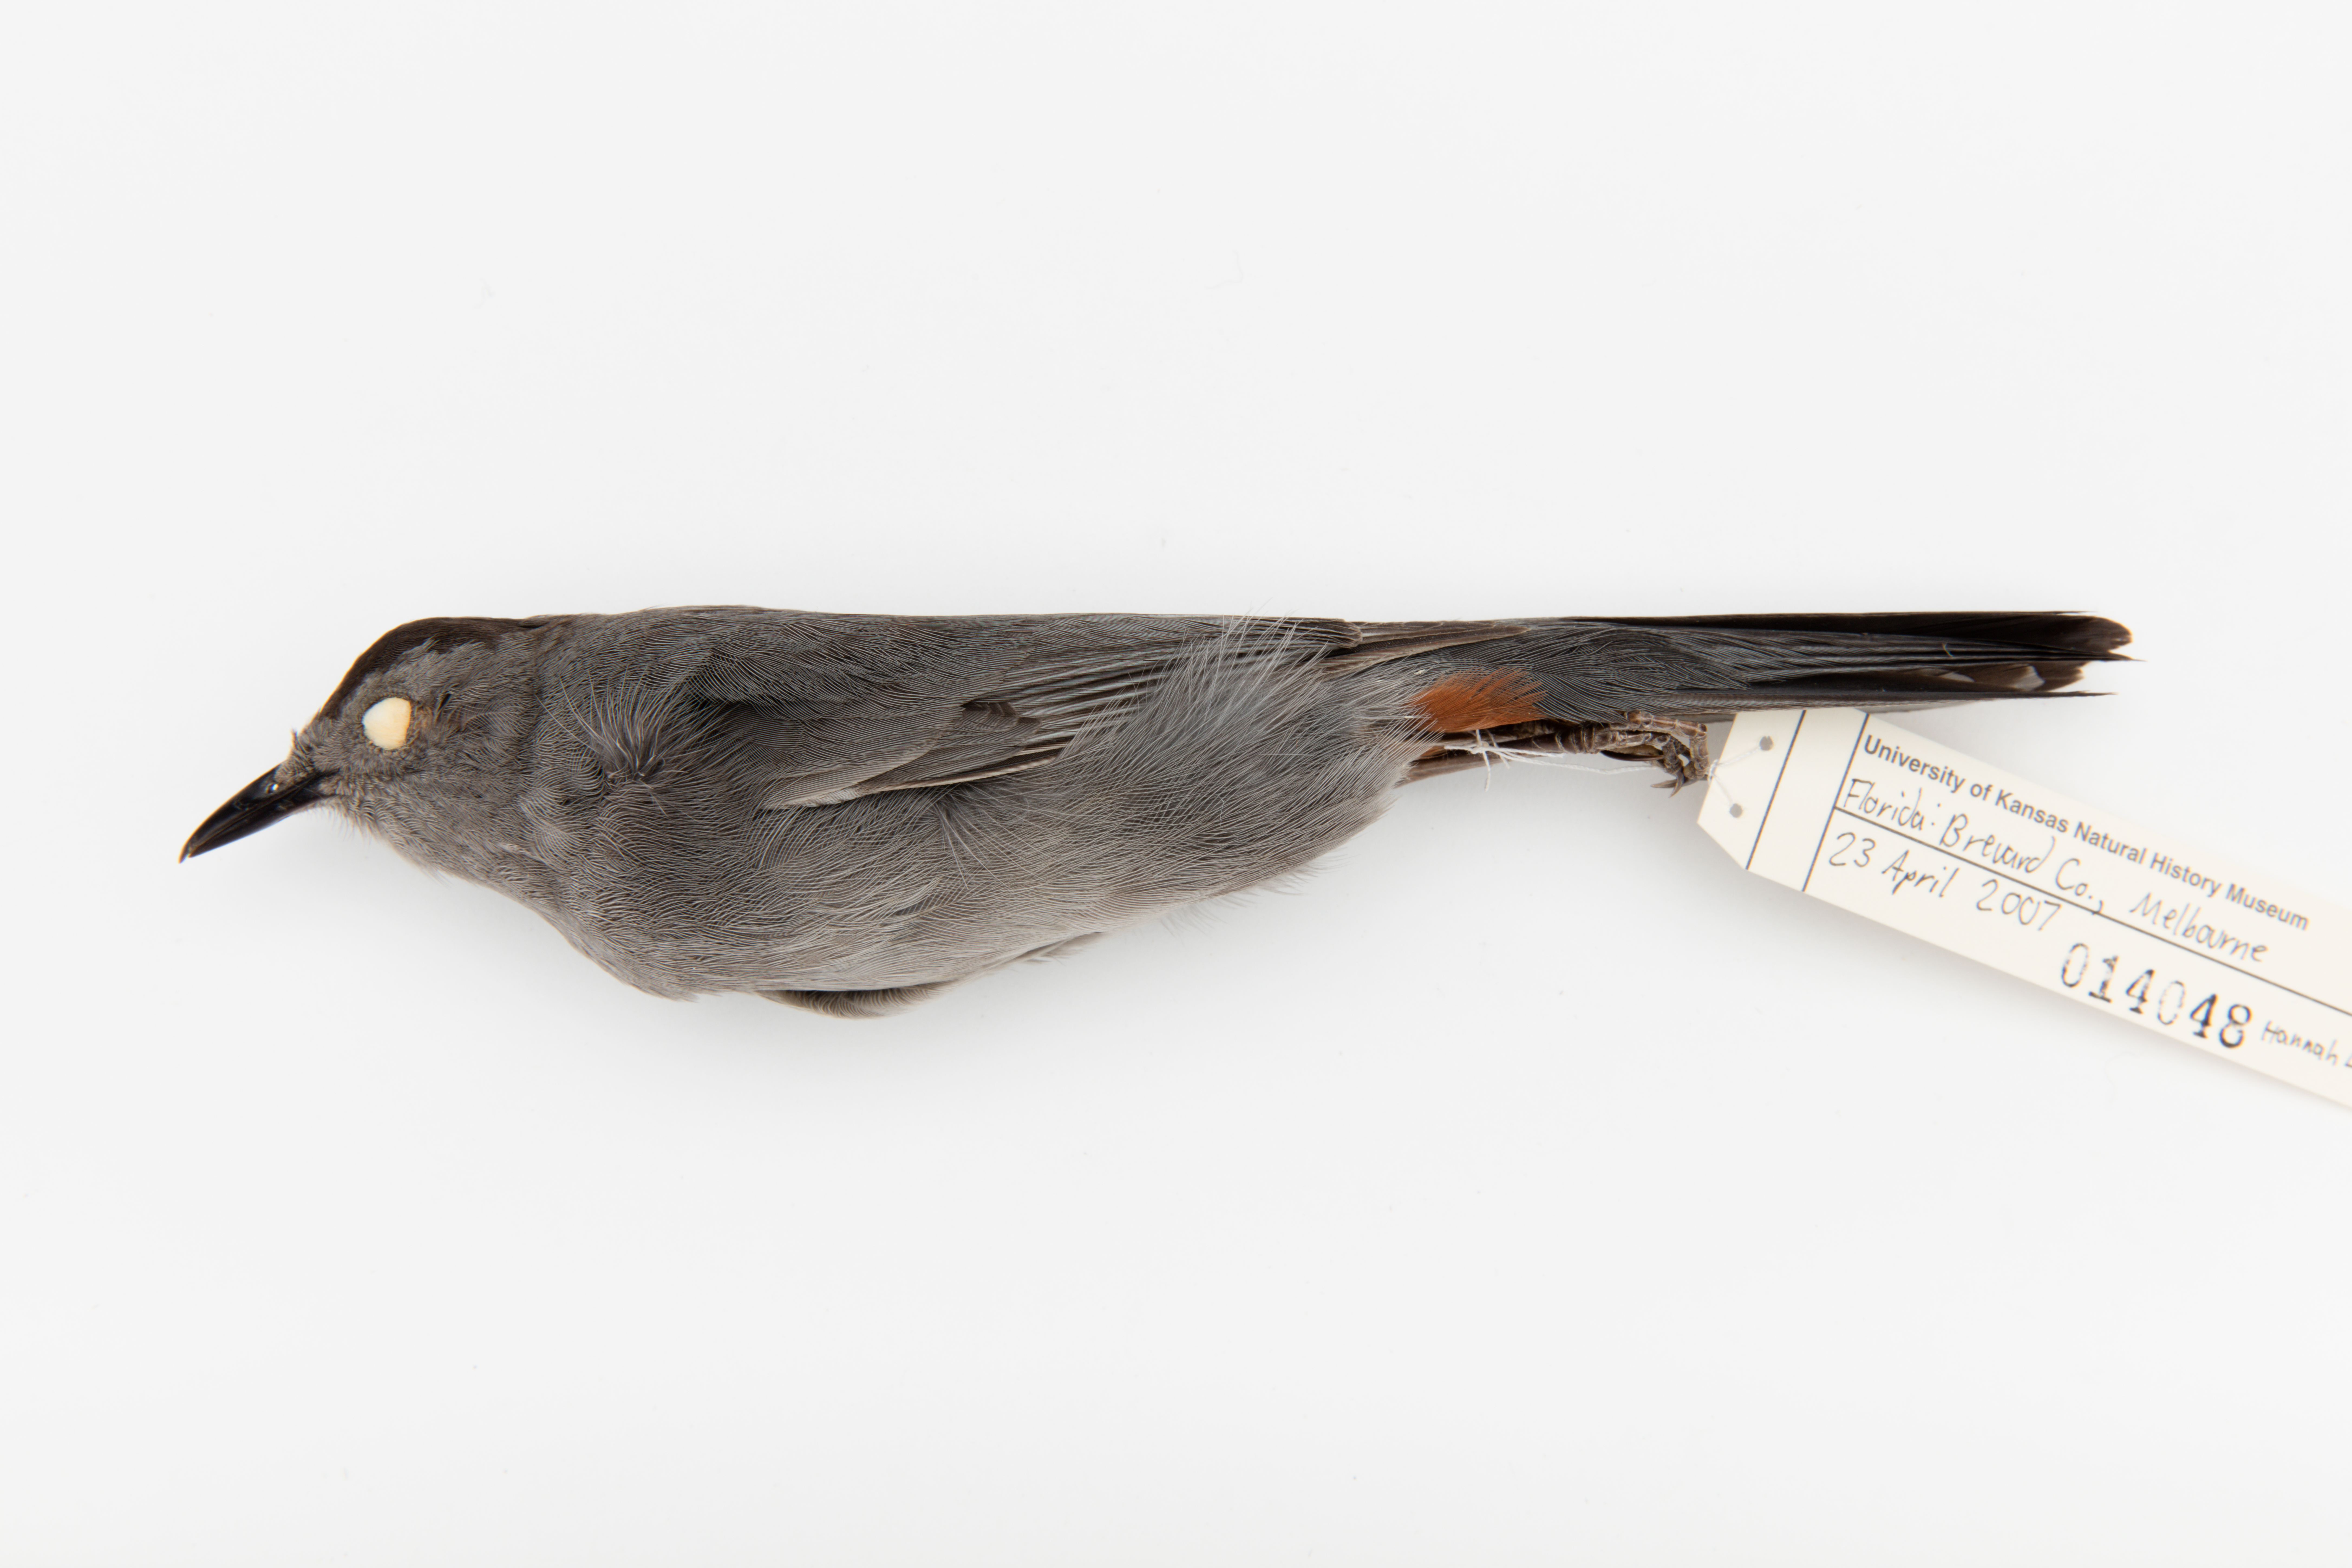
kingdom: Animalia
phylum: Chordata
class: Aves
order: Passeriformes
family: Mimidae
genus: Dumetella
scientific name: Dumetella carolinensis
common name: Gray catbird
